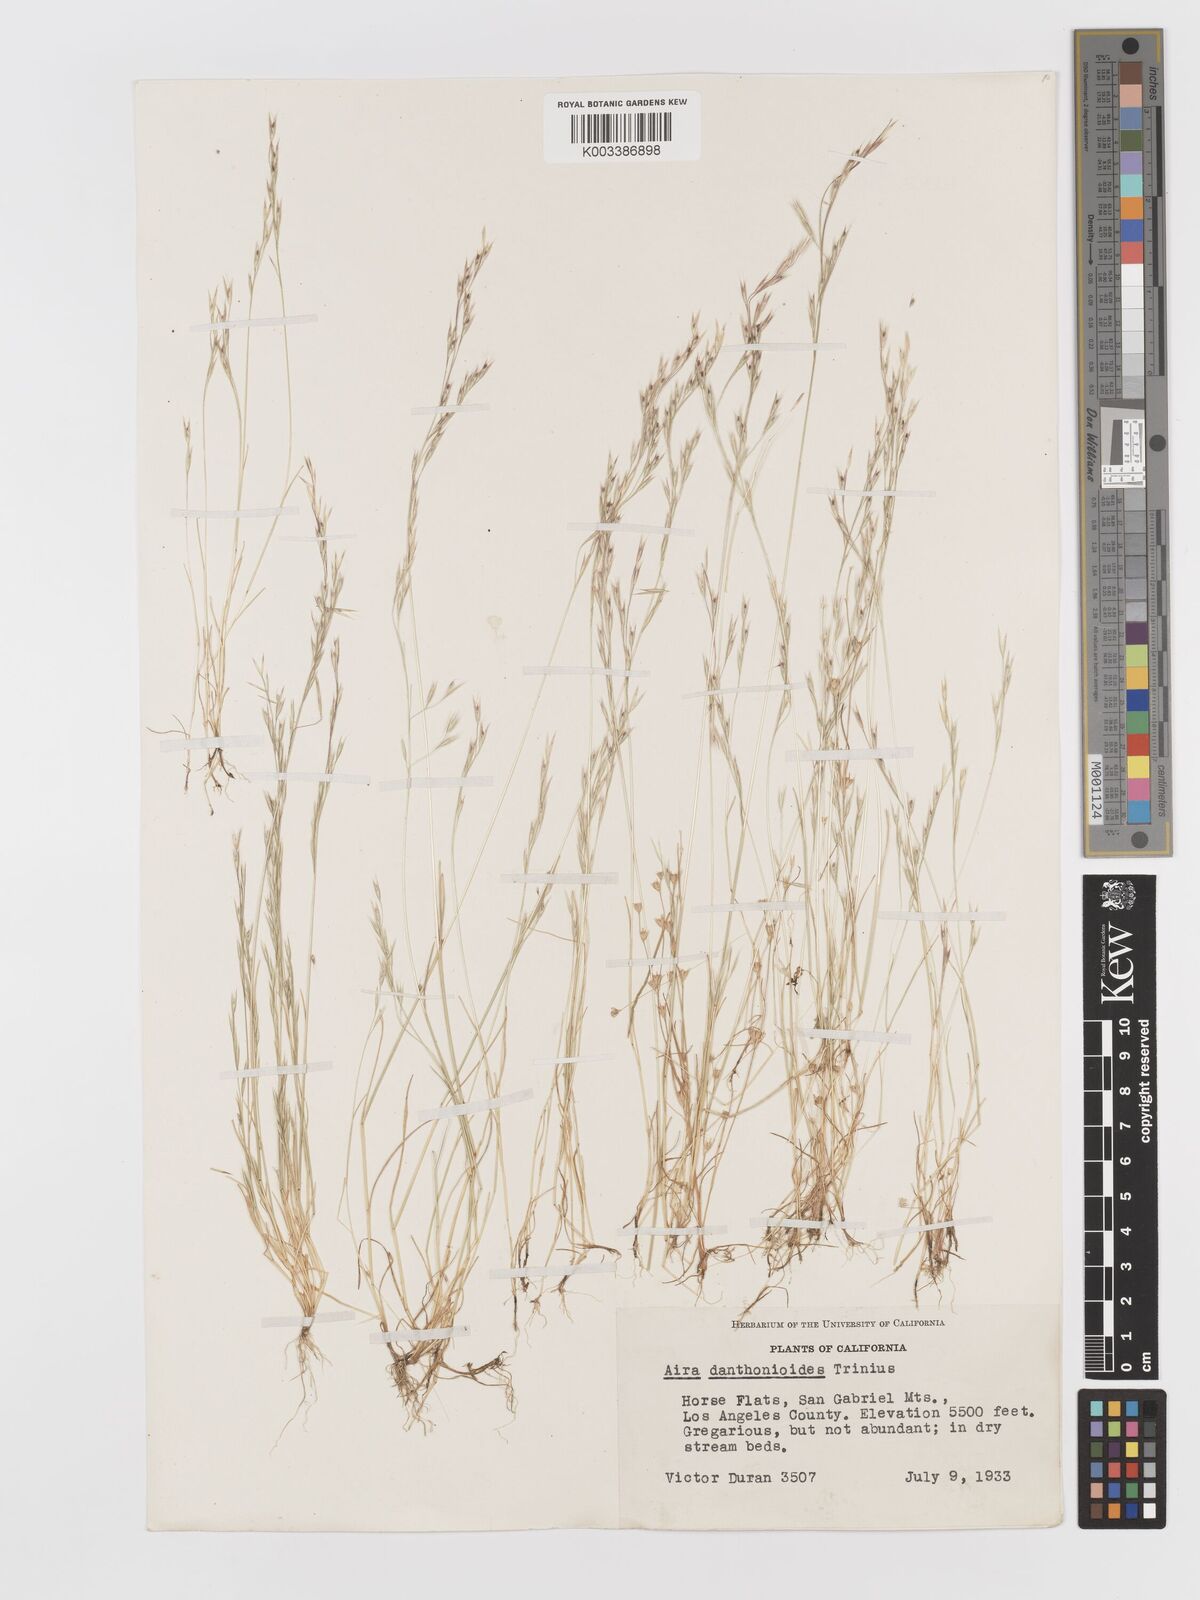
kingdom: Plantae
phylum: Tracheophyta
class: Liliopsida
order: Poales
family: Poaceae
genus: Deschampsia
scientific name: Deschampsia danthonioides
